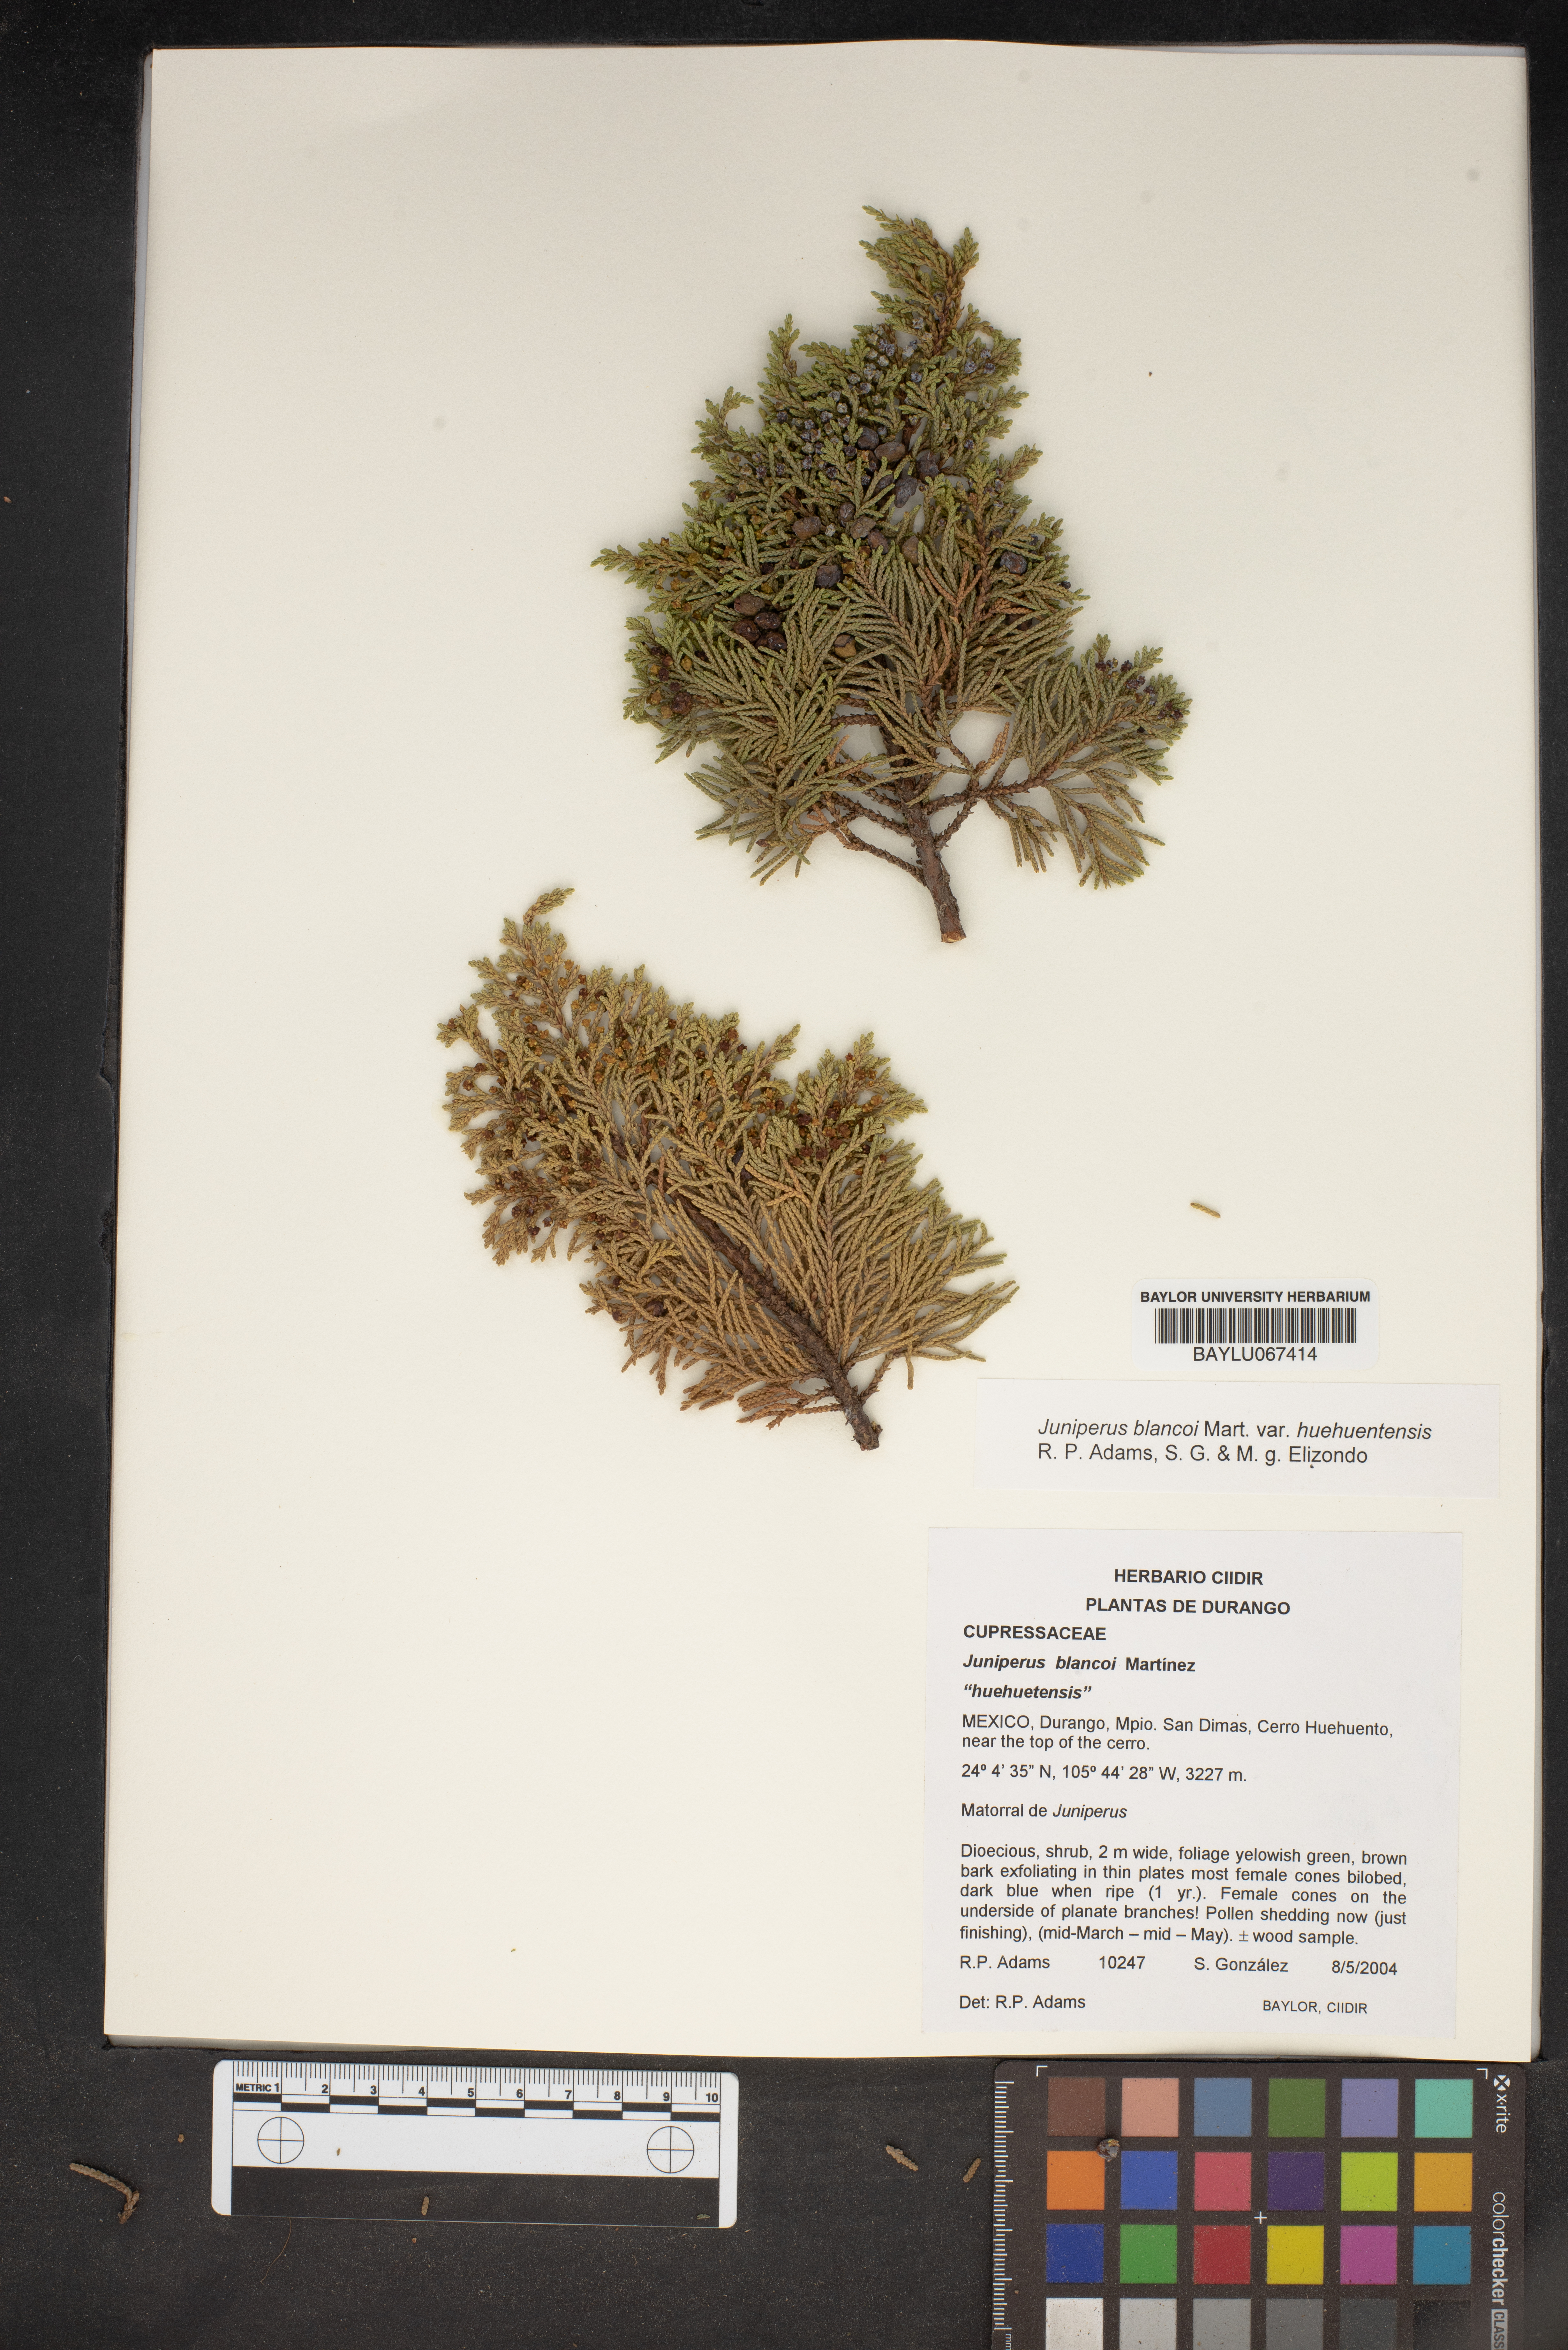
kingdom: Plantae
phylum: Tracheophyta
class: Pinopsida
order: Pinales
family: Cupressaceae
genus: Juniperus
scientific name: Juniperus blancoi
